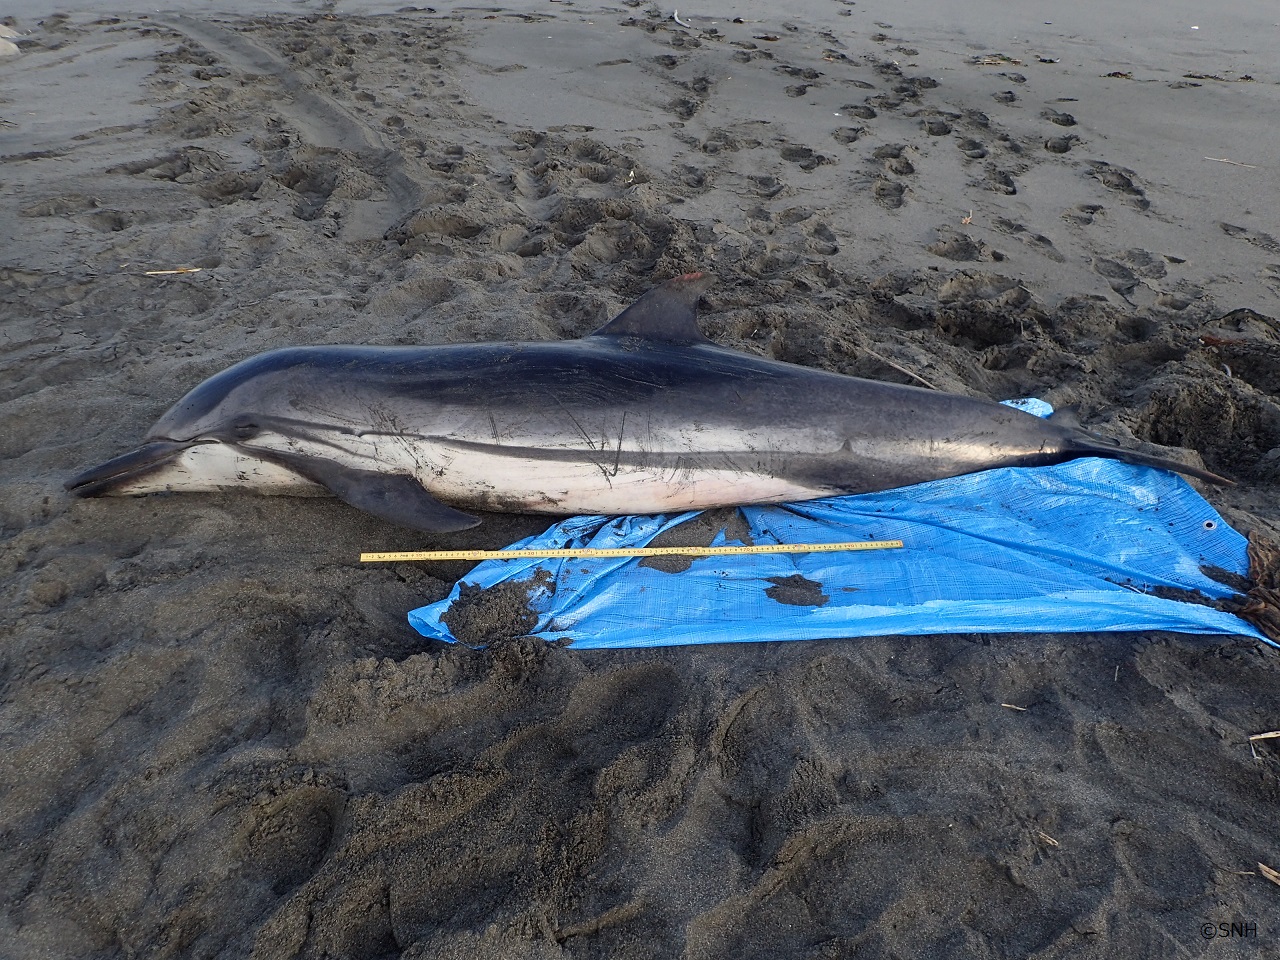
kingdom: Animalia
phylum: Chordata
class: Mammalia
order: Cetacea
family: Delphinidae
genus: Stenella
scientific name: Stenella coeruleoalba
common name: Striped dolphin
